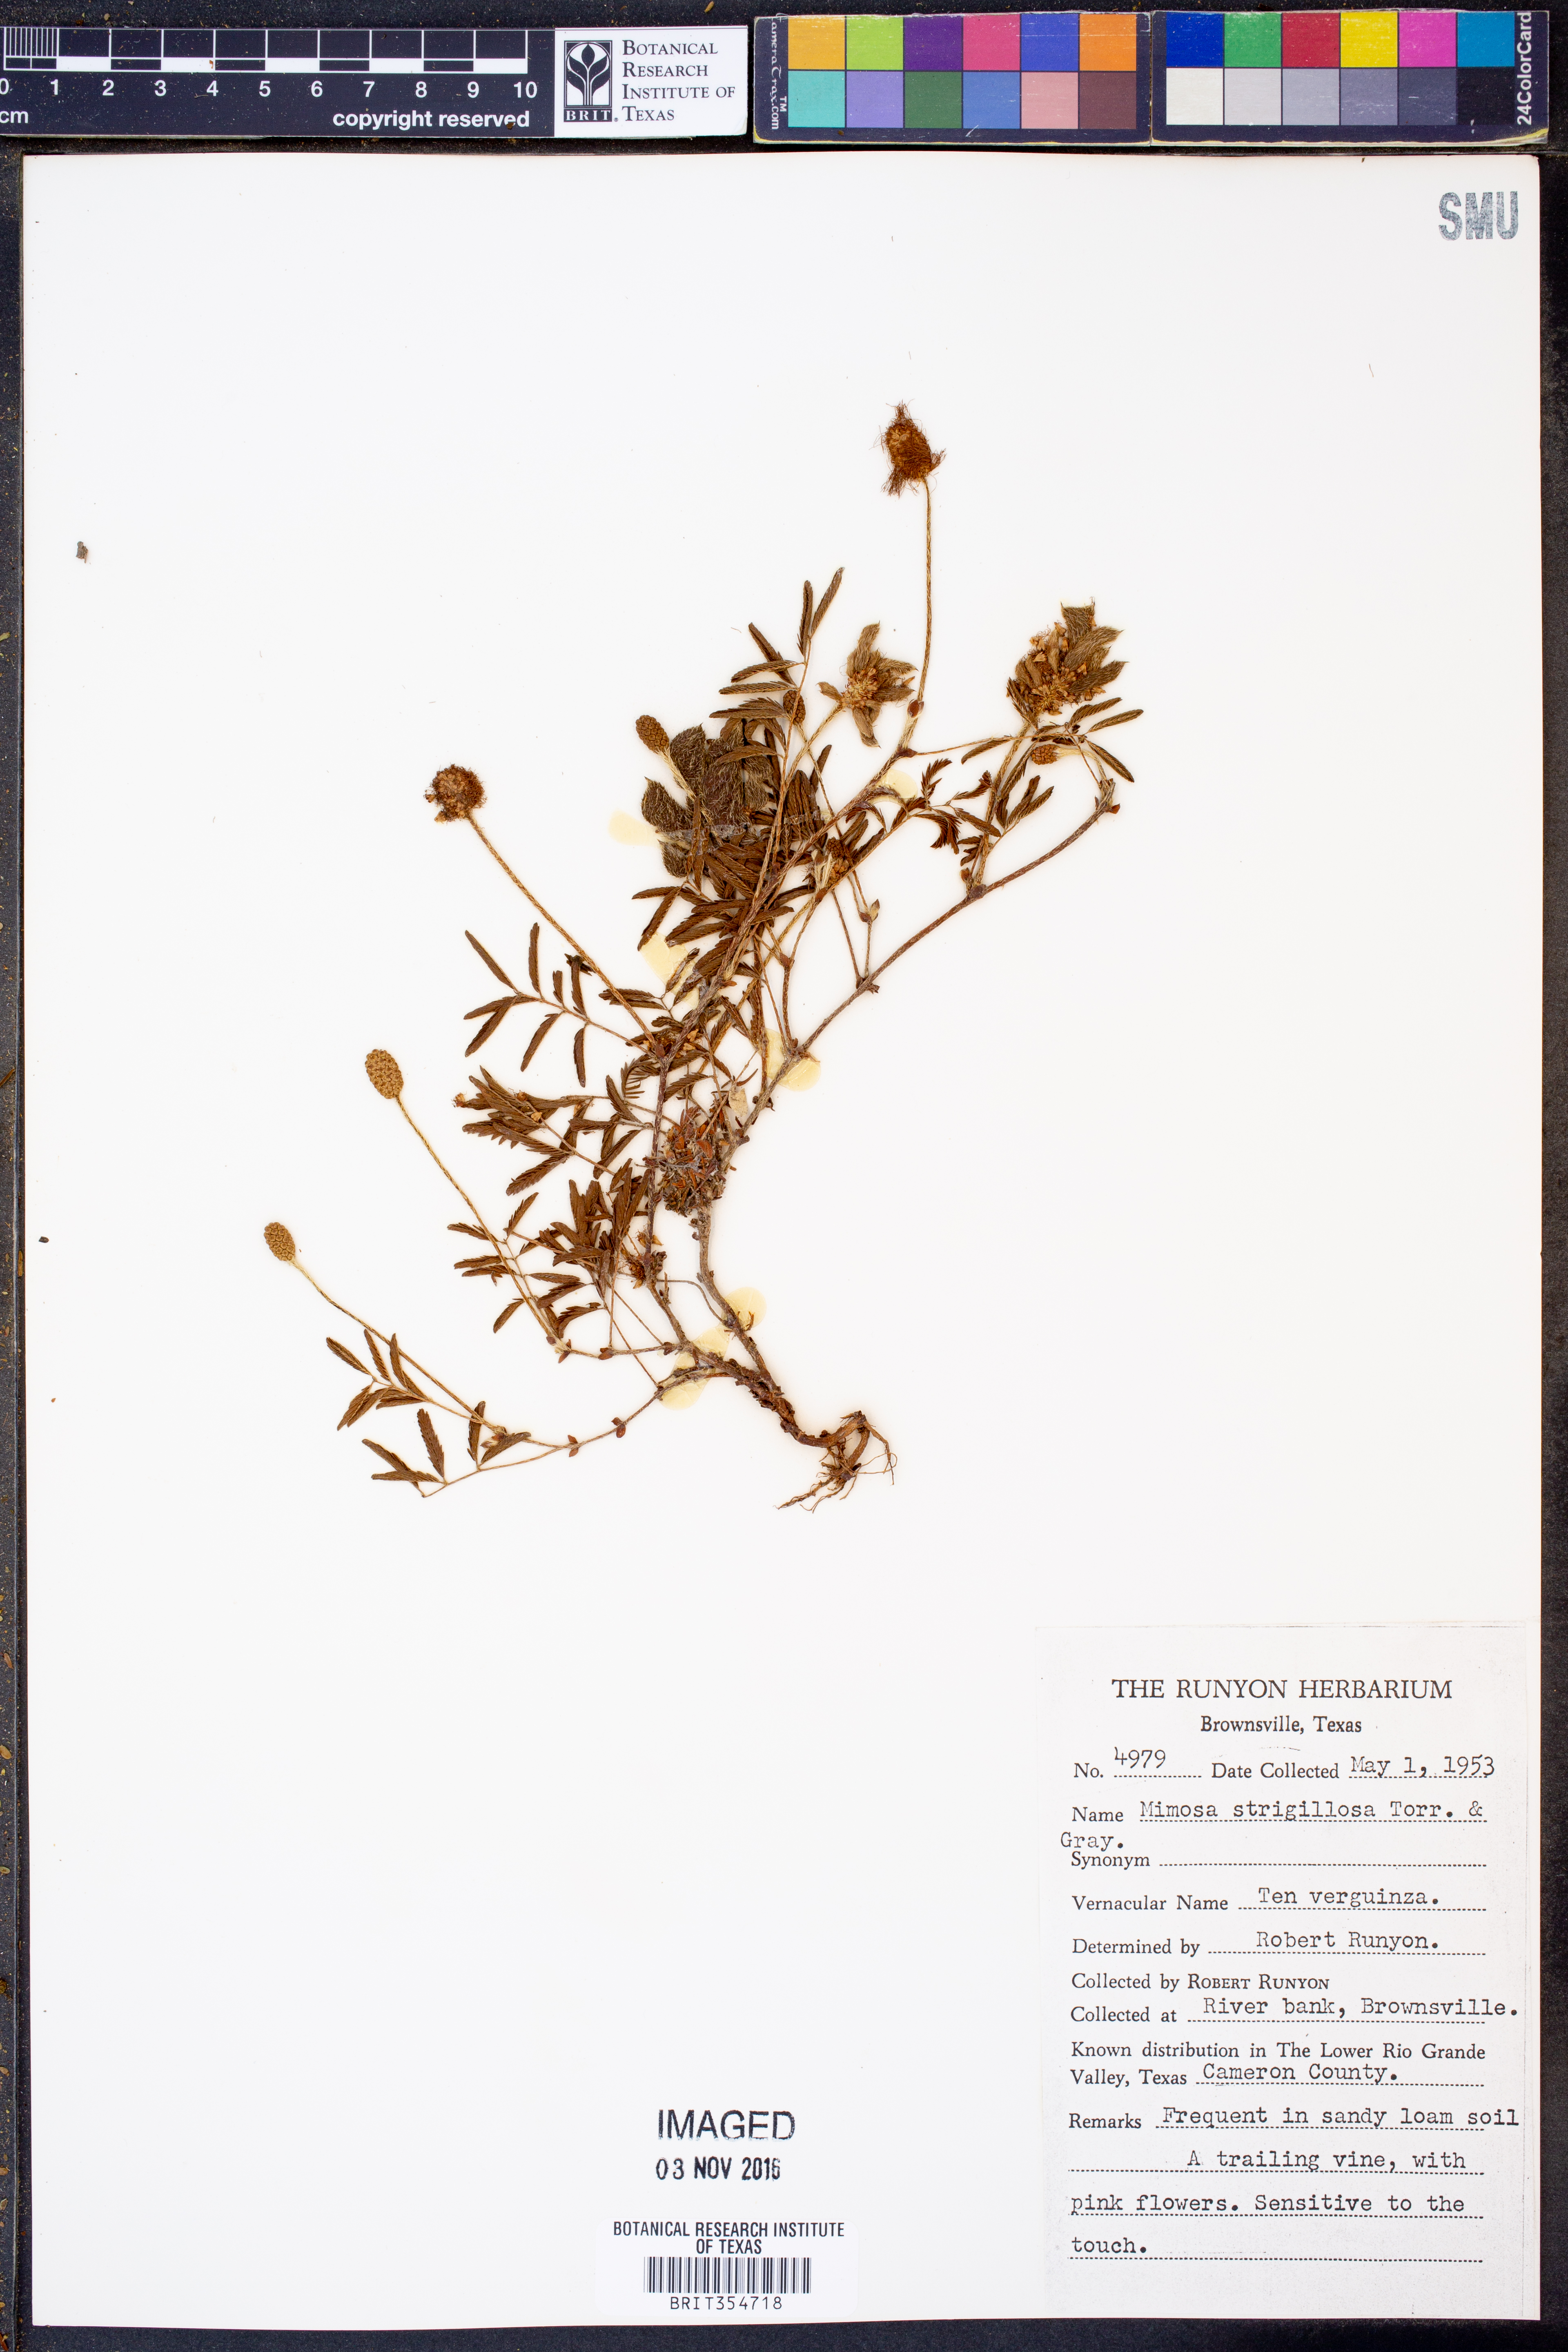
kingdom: Plantae
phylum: Tracheophyta
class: Magnoliopsida
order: Fabales
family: Fabaceae
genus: Mimosa
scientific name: Mimosa strigillosa
